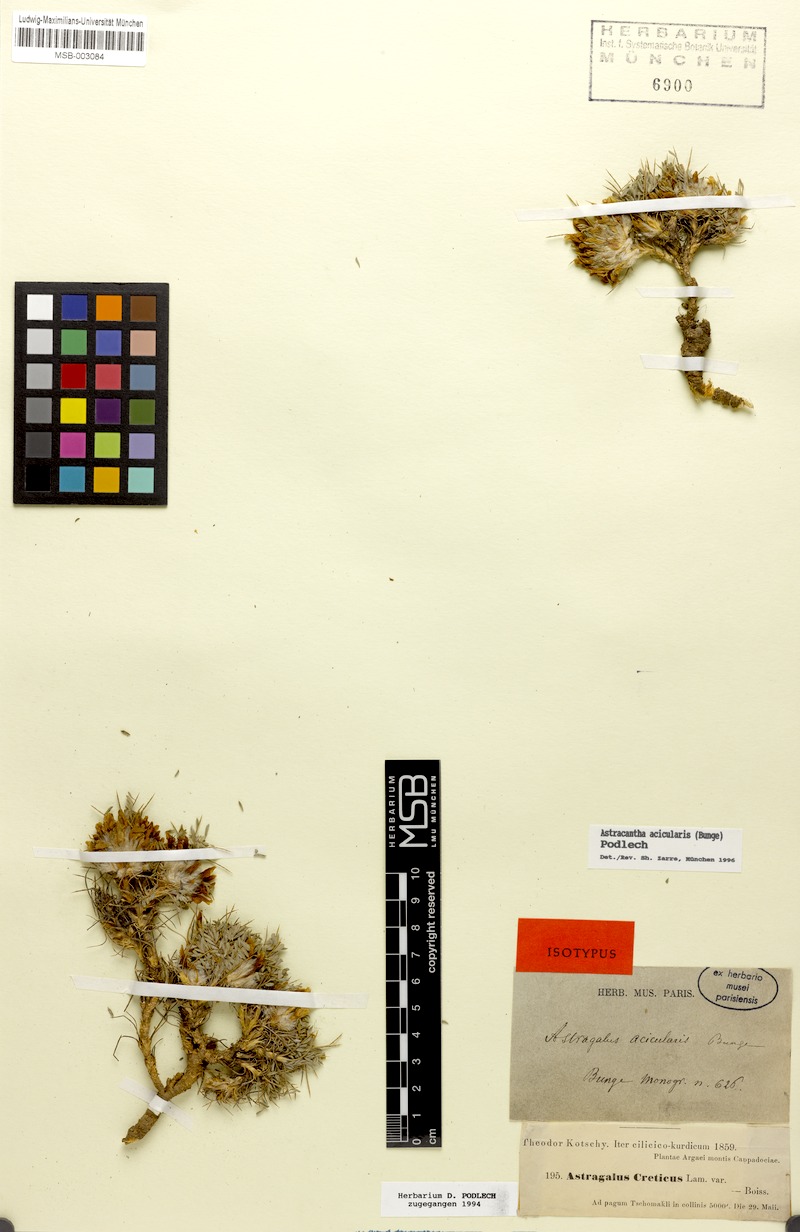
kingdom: Plantae
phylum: Tracheophyta
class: Magnoliopsida
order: Fabales
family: Fabaceae
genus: Astragalus
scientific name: Astragalus acicularis
